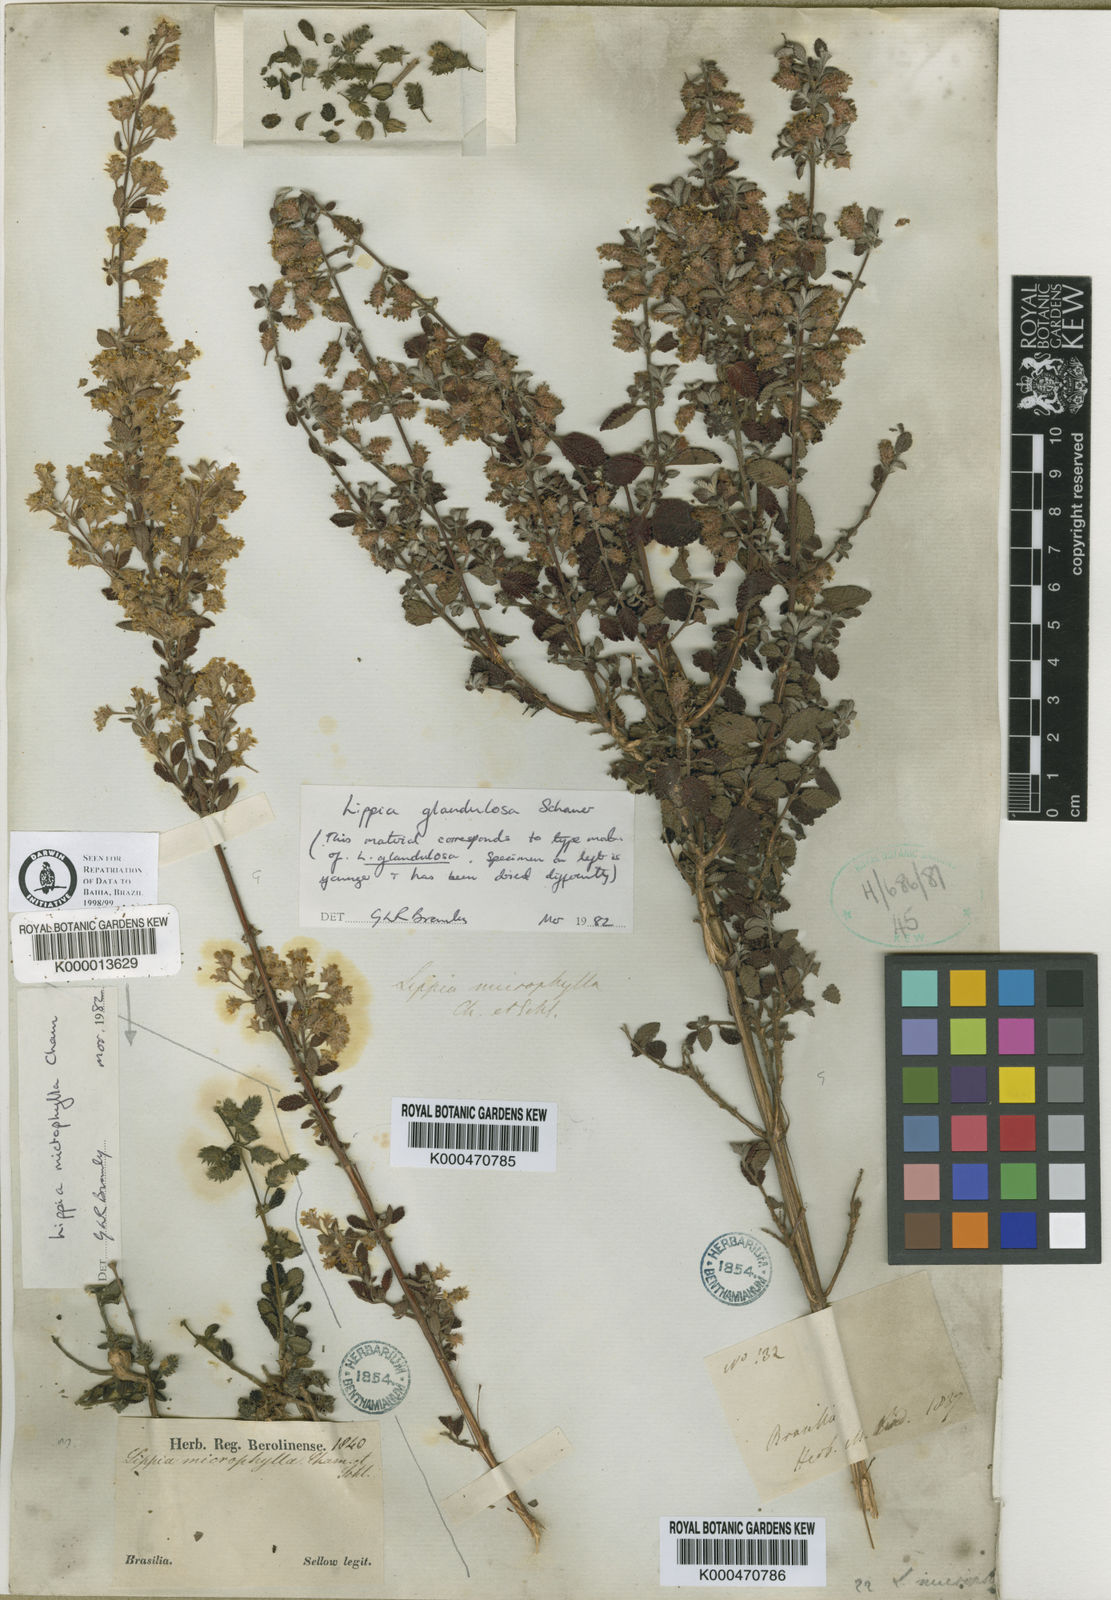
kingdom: Plantae
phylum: Tracheophyta
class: Magnoliopsida
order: Lamiales
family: Verbenaceae
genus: Lippia
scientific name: Lippia origanoides
